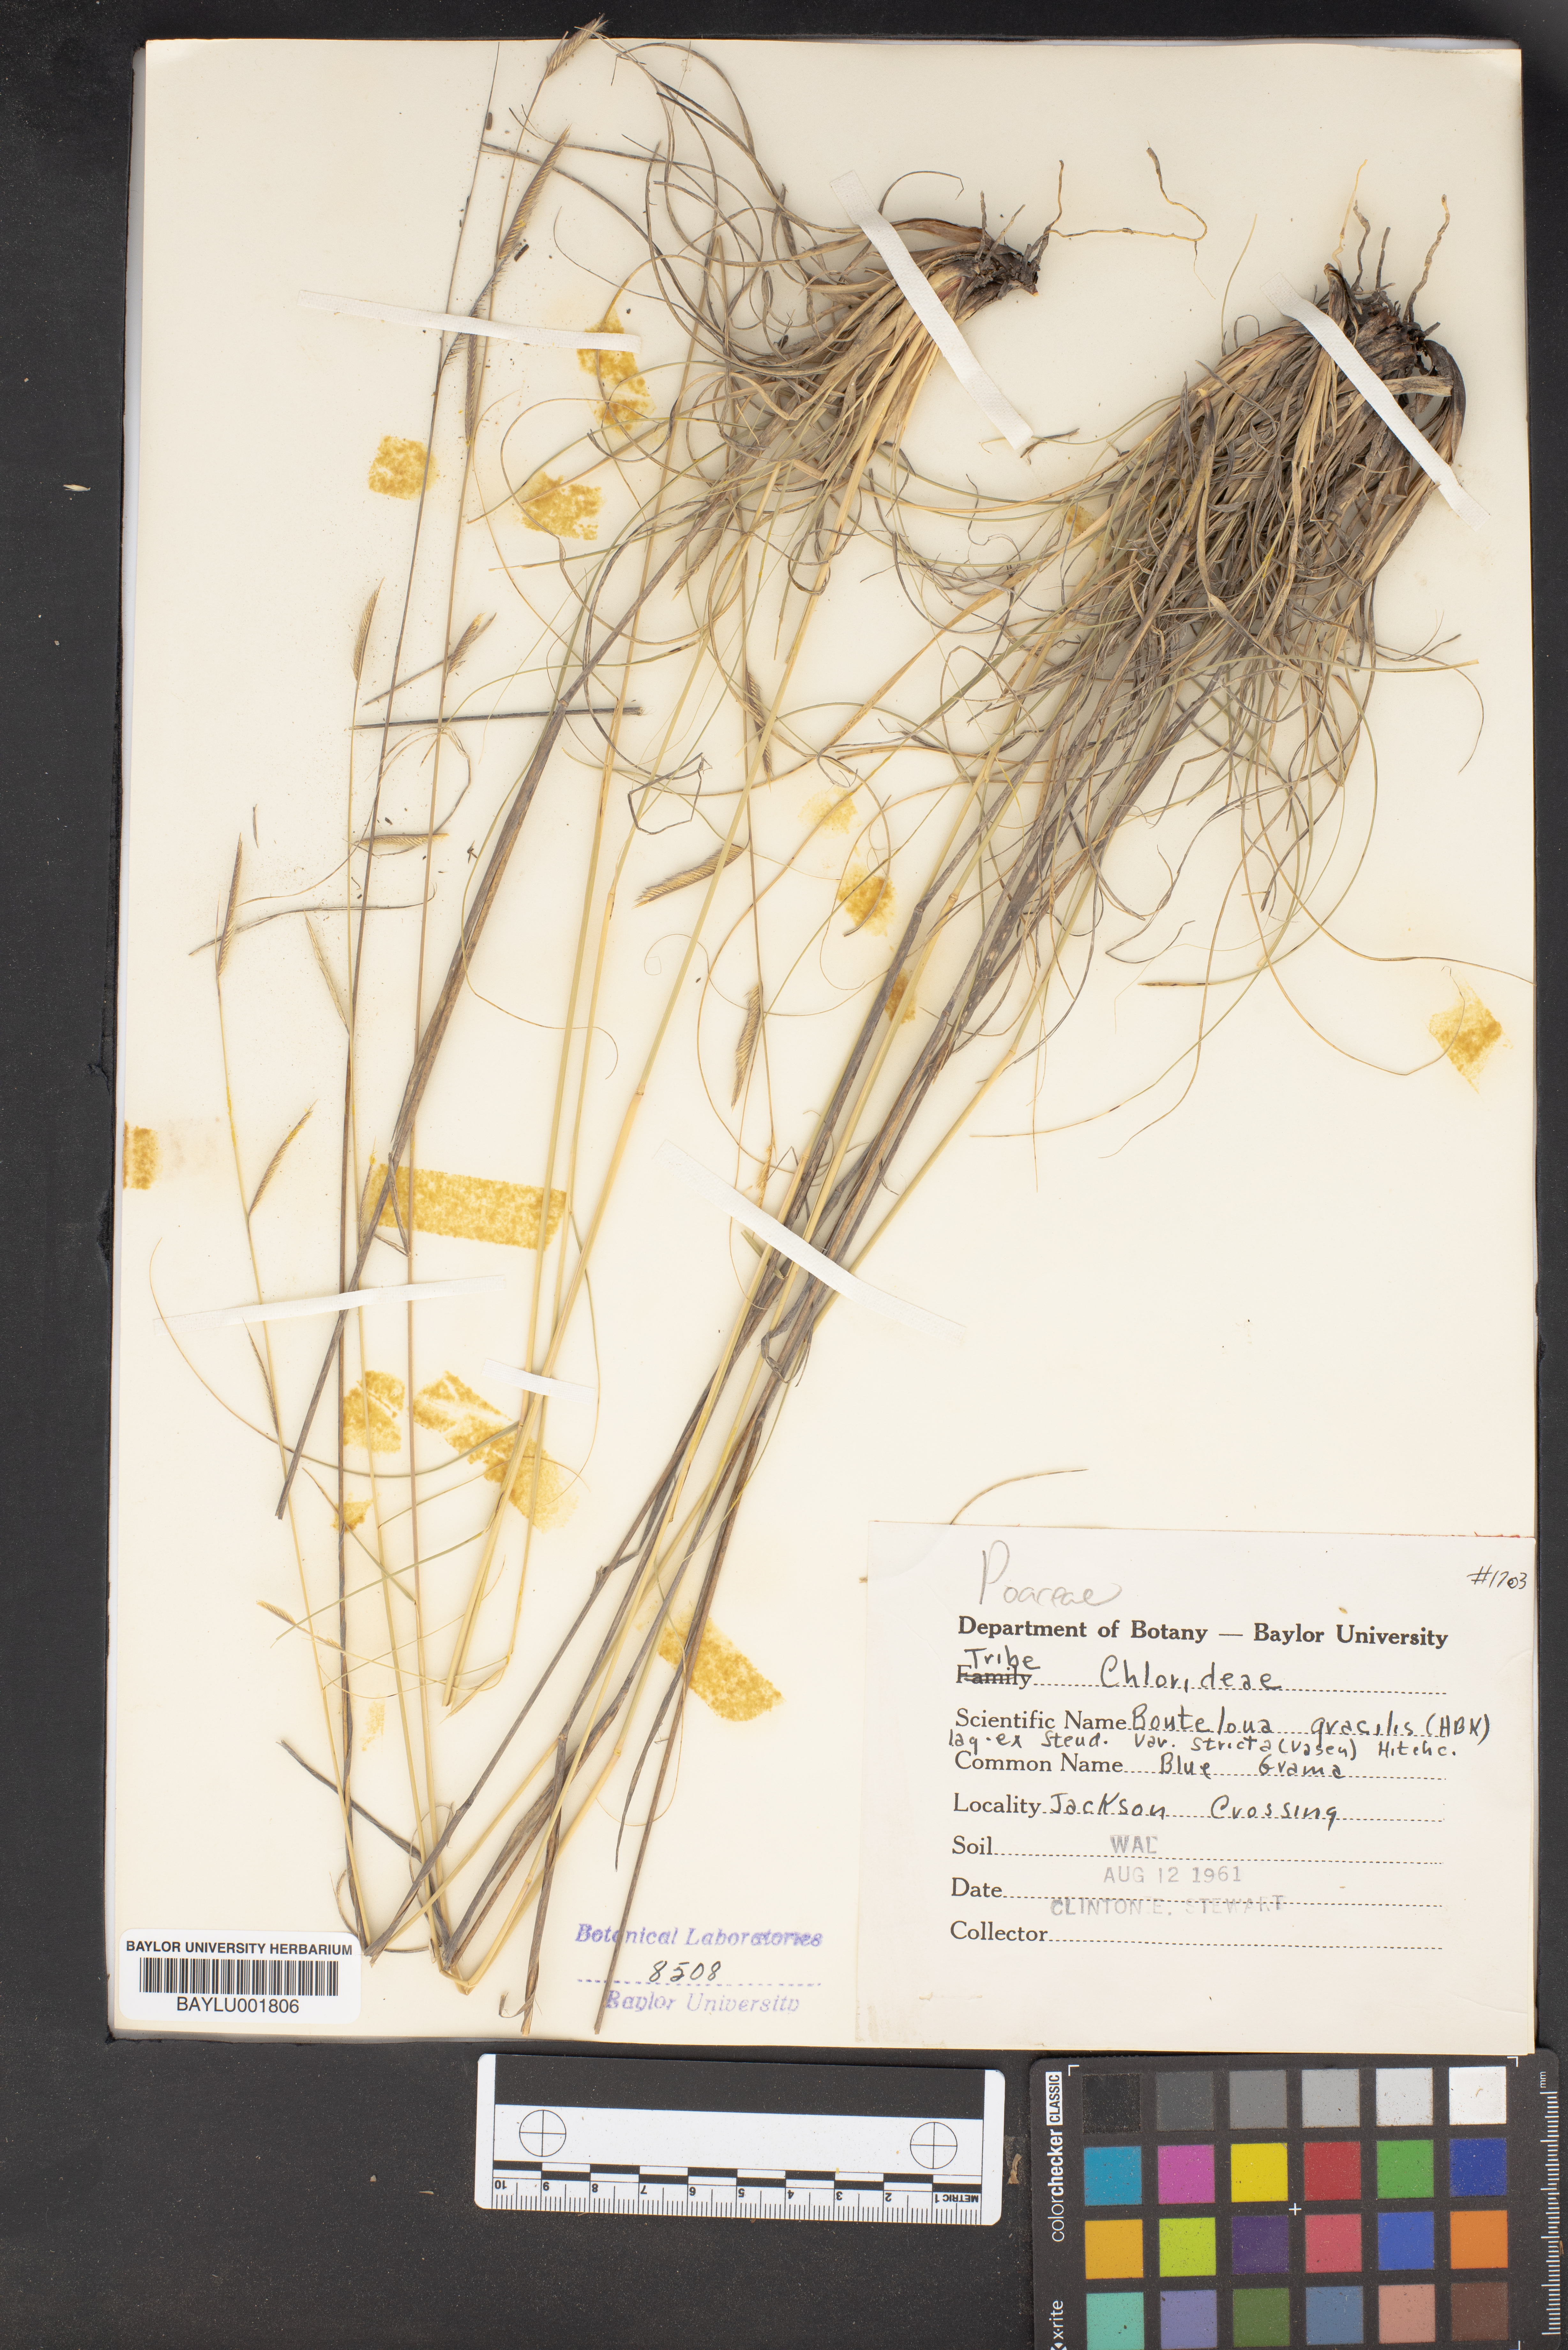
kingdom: Plantae
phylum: Tracheophyta
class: Liliopsida
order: Poales
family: Poaceae
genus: Bouteloua
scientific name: Bouteloua gracilis
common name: Blue grama
